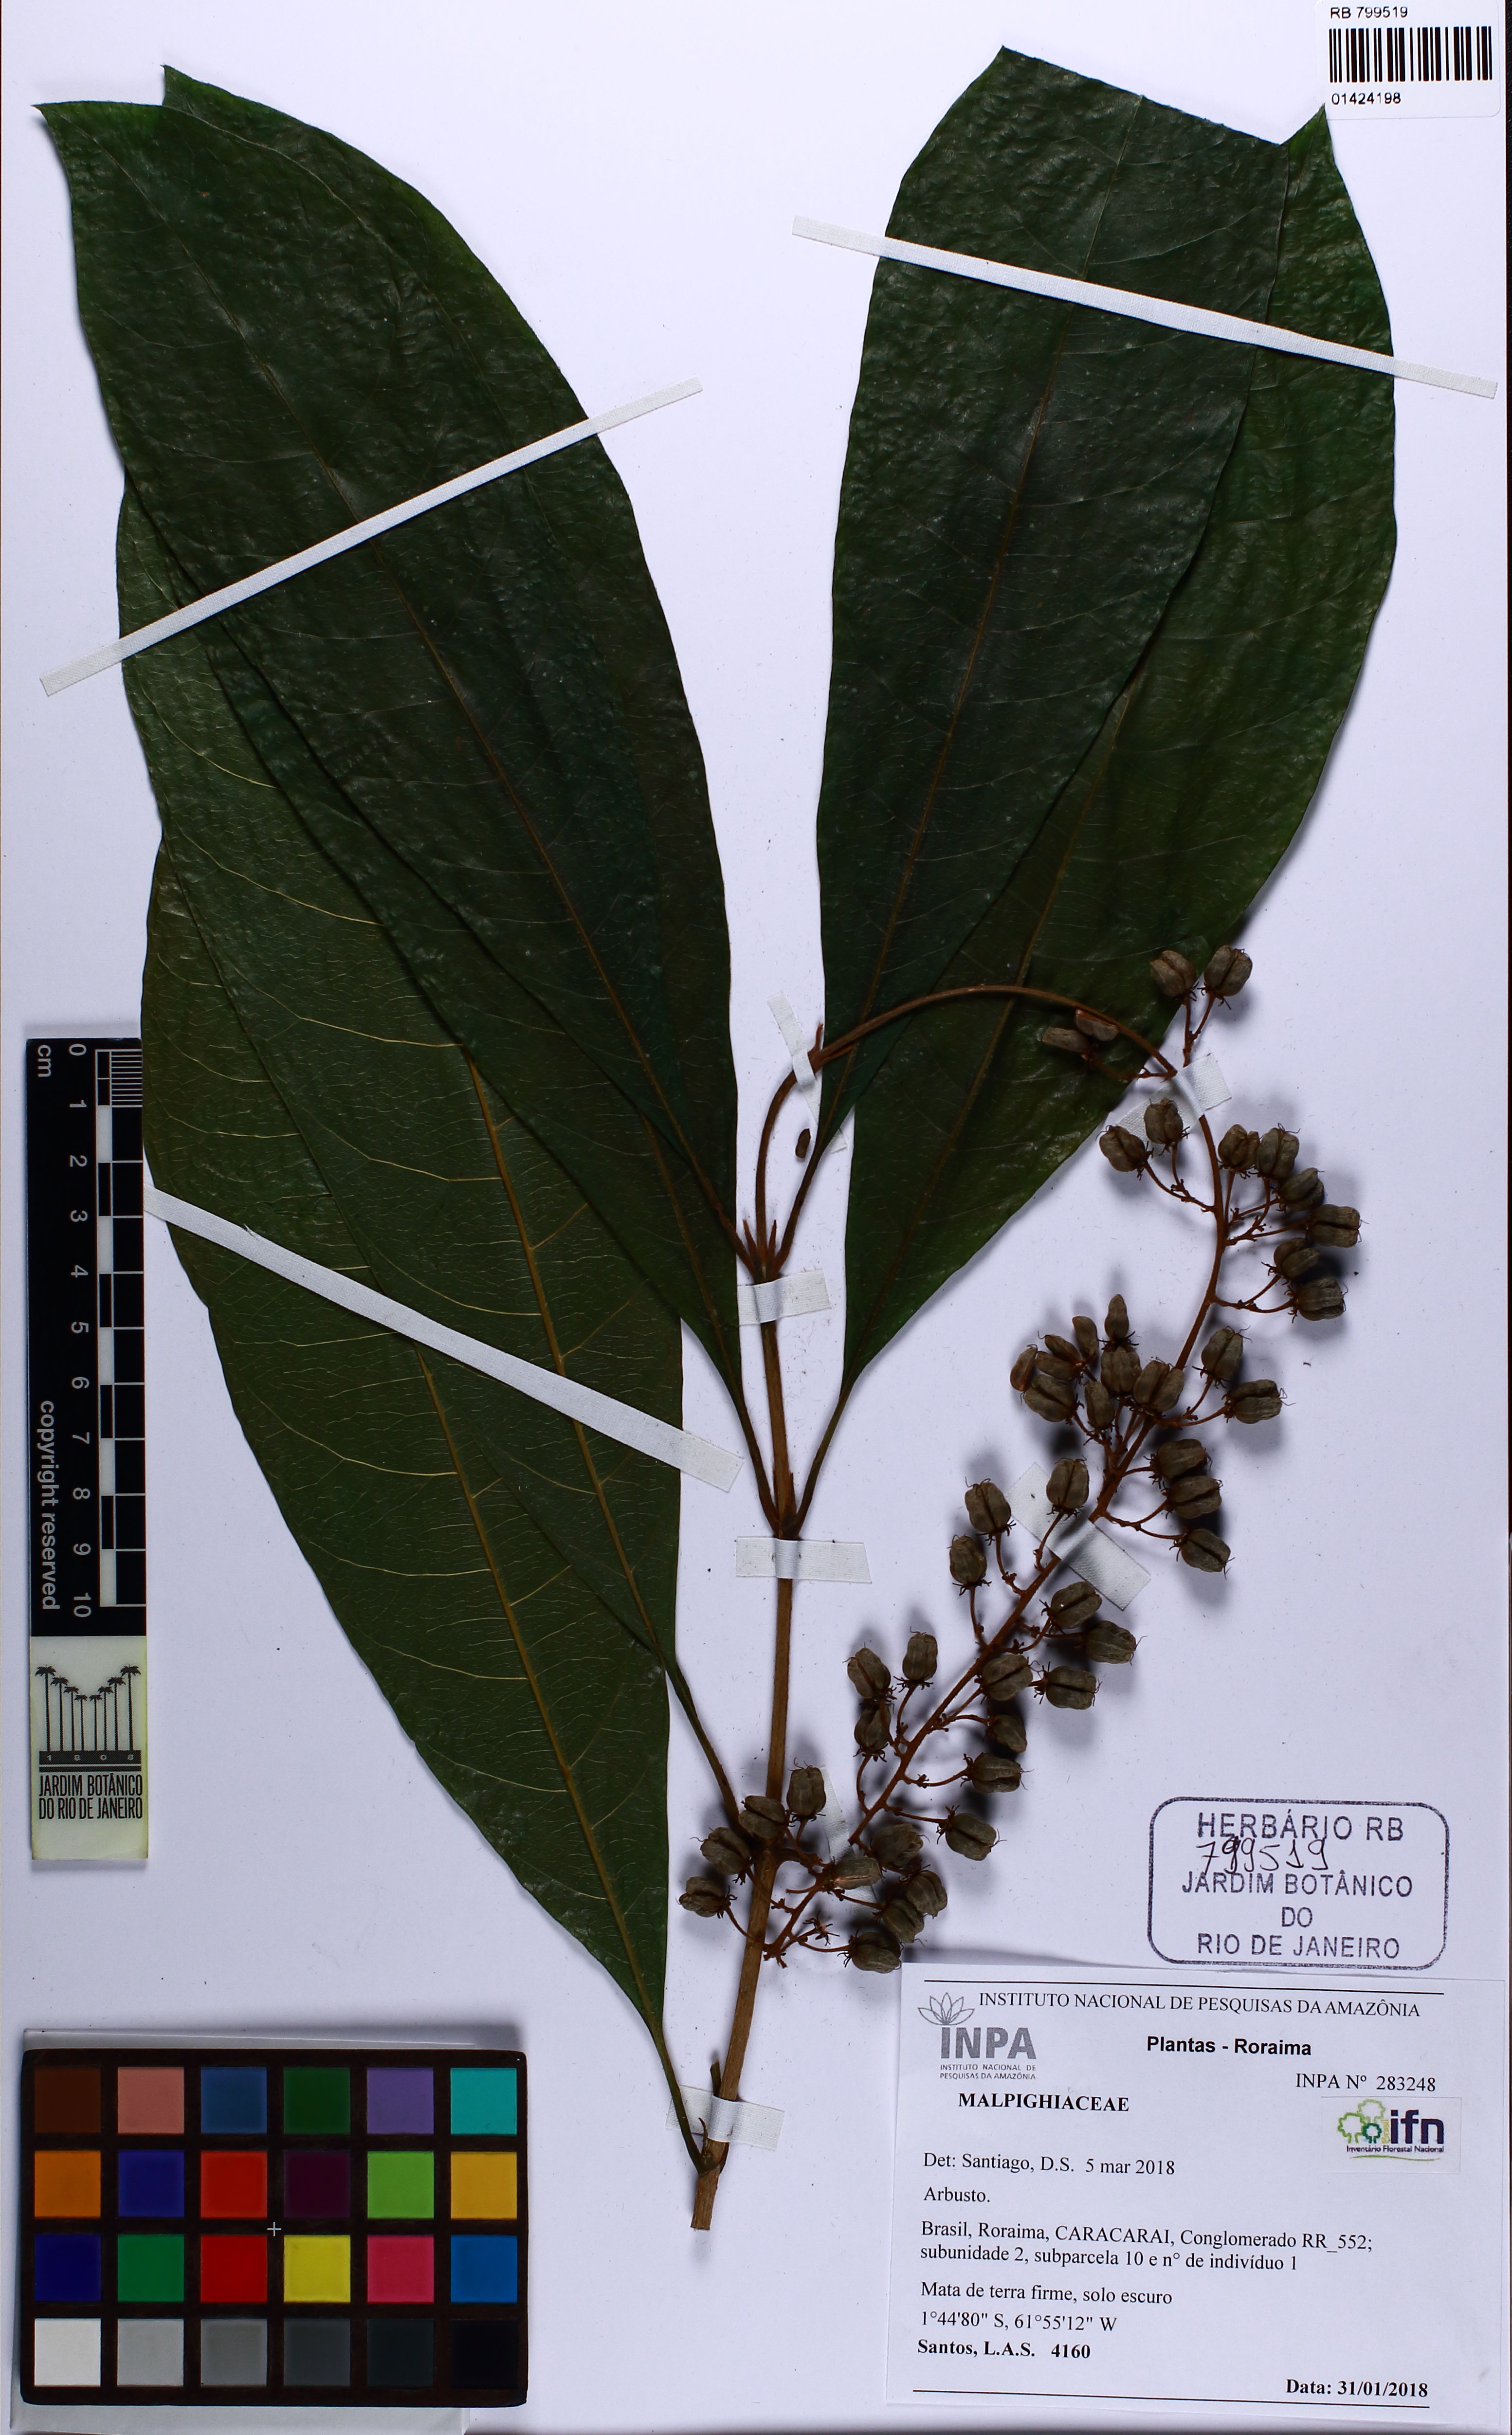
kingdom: Plantae
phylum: Tracheophyta
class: Magnoliopsida
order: Malpighiales
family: Malpighiaceae
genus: Lophanthera
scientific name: Lophanthera
